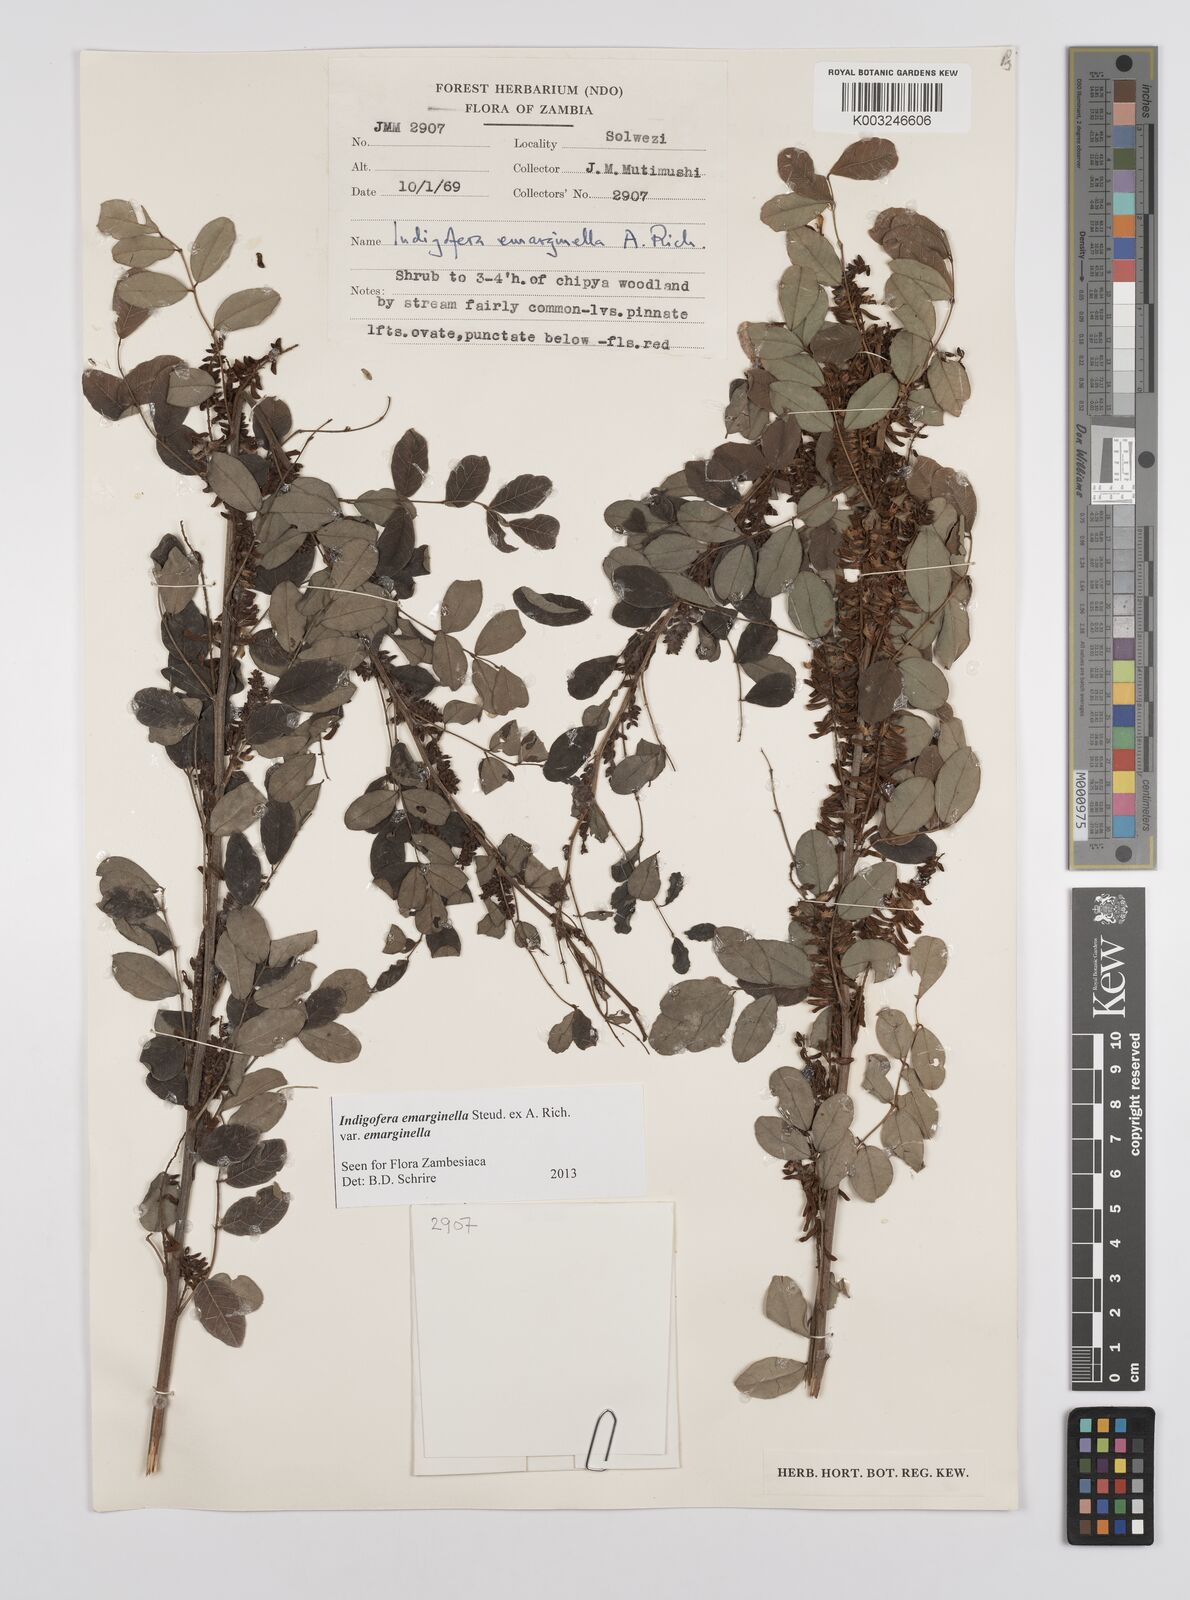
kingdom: Plantae
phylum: Tracheophyta
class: Magnoliopsida
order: Fabales
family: Fabaceae
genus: Indigofera
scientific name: Indigofera emarginella
